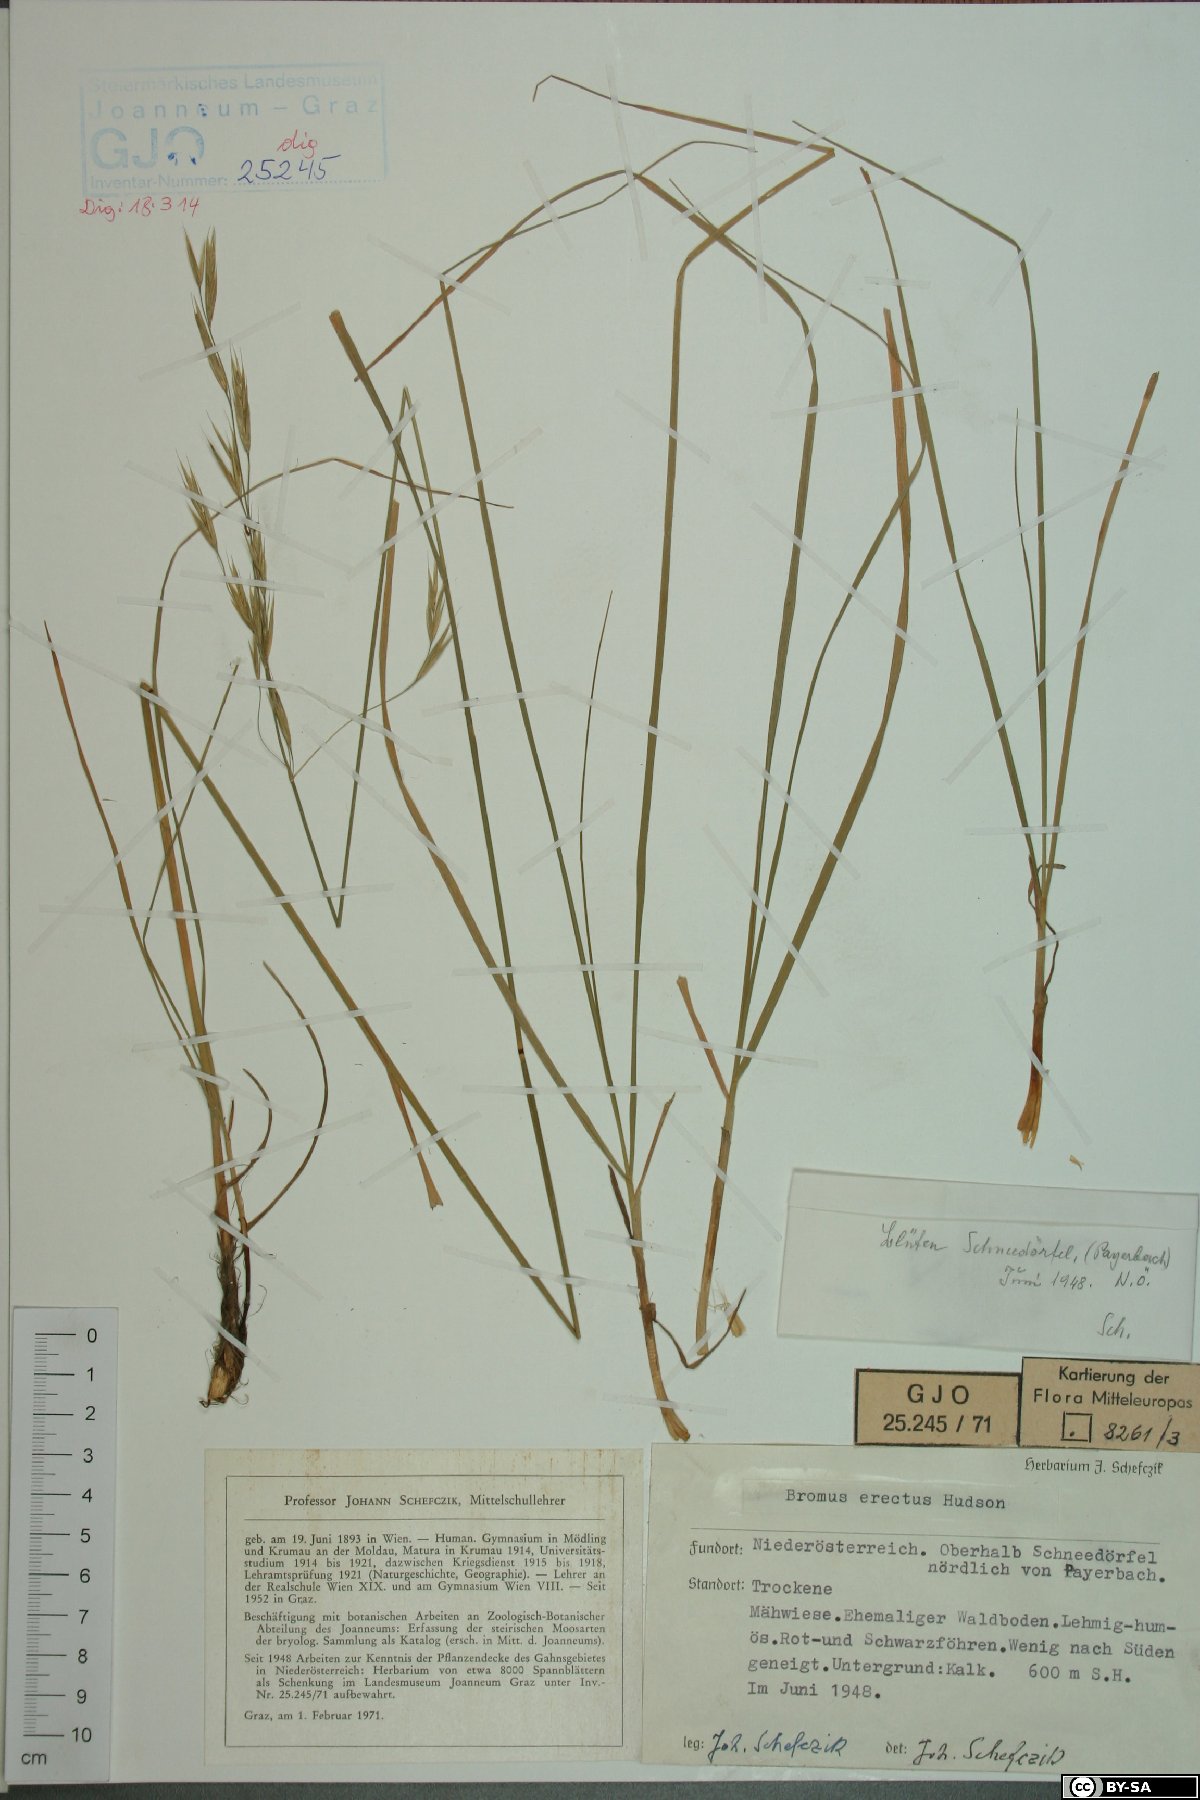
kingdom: Plantae
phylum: Tracheophyta
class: Liliopsida
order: Poales
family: Poaceae
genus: Bromus
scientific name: Bromus erectus
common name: Erect brome
